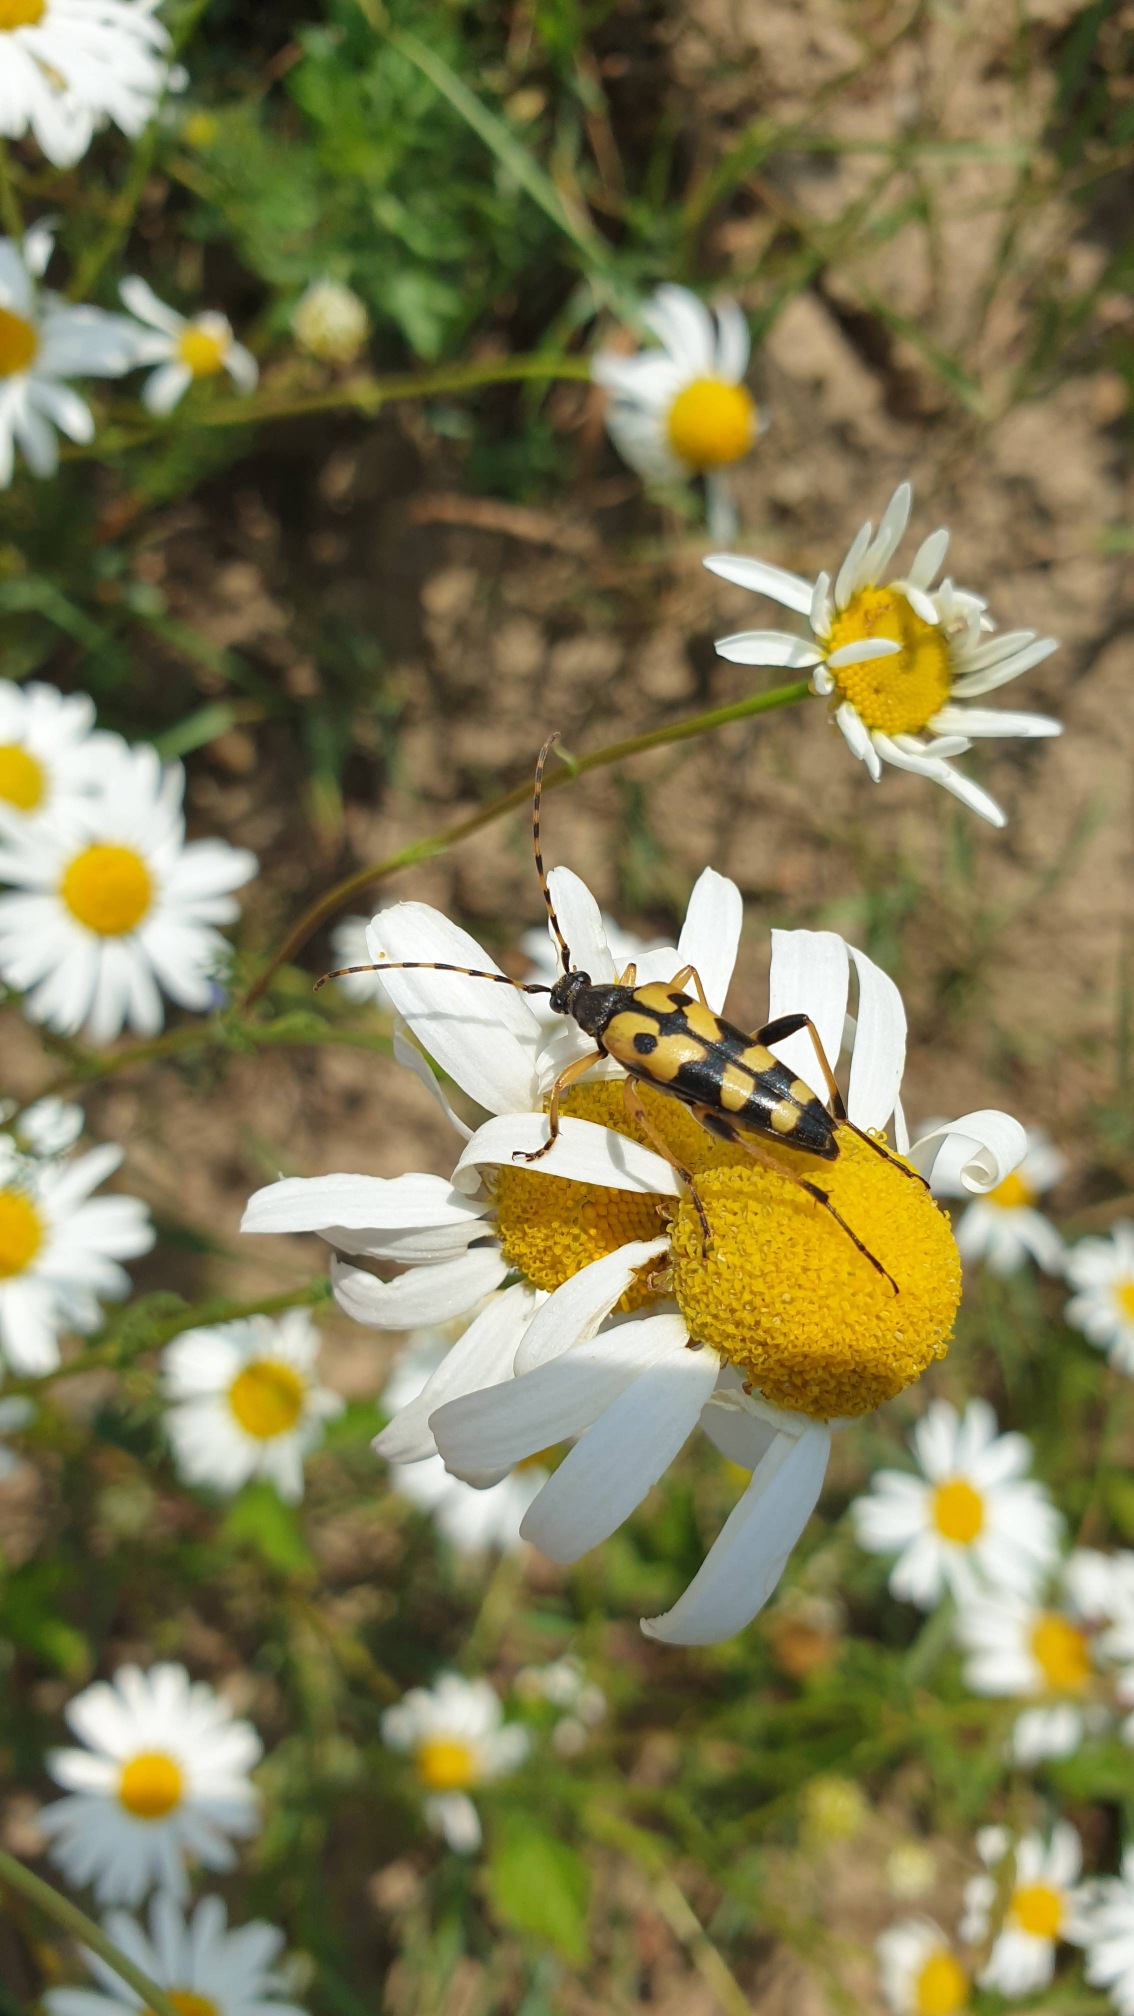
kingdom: Animalia
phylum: Arthropoda
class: Insecta
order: Coleoptera
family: Cerambycidae
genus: Rutpela
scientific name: Rutpela maculata
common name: Sydlig blomsterbuk
